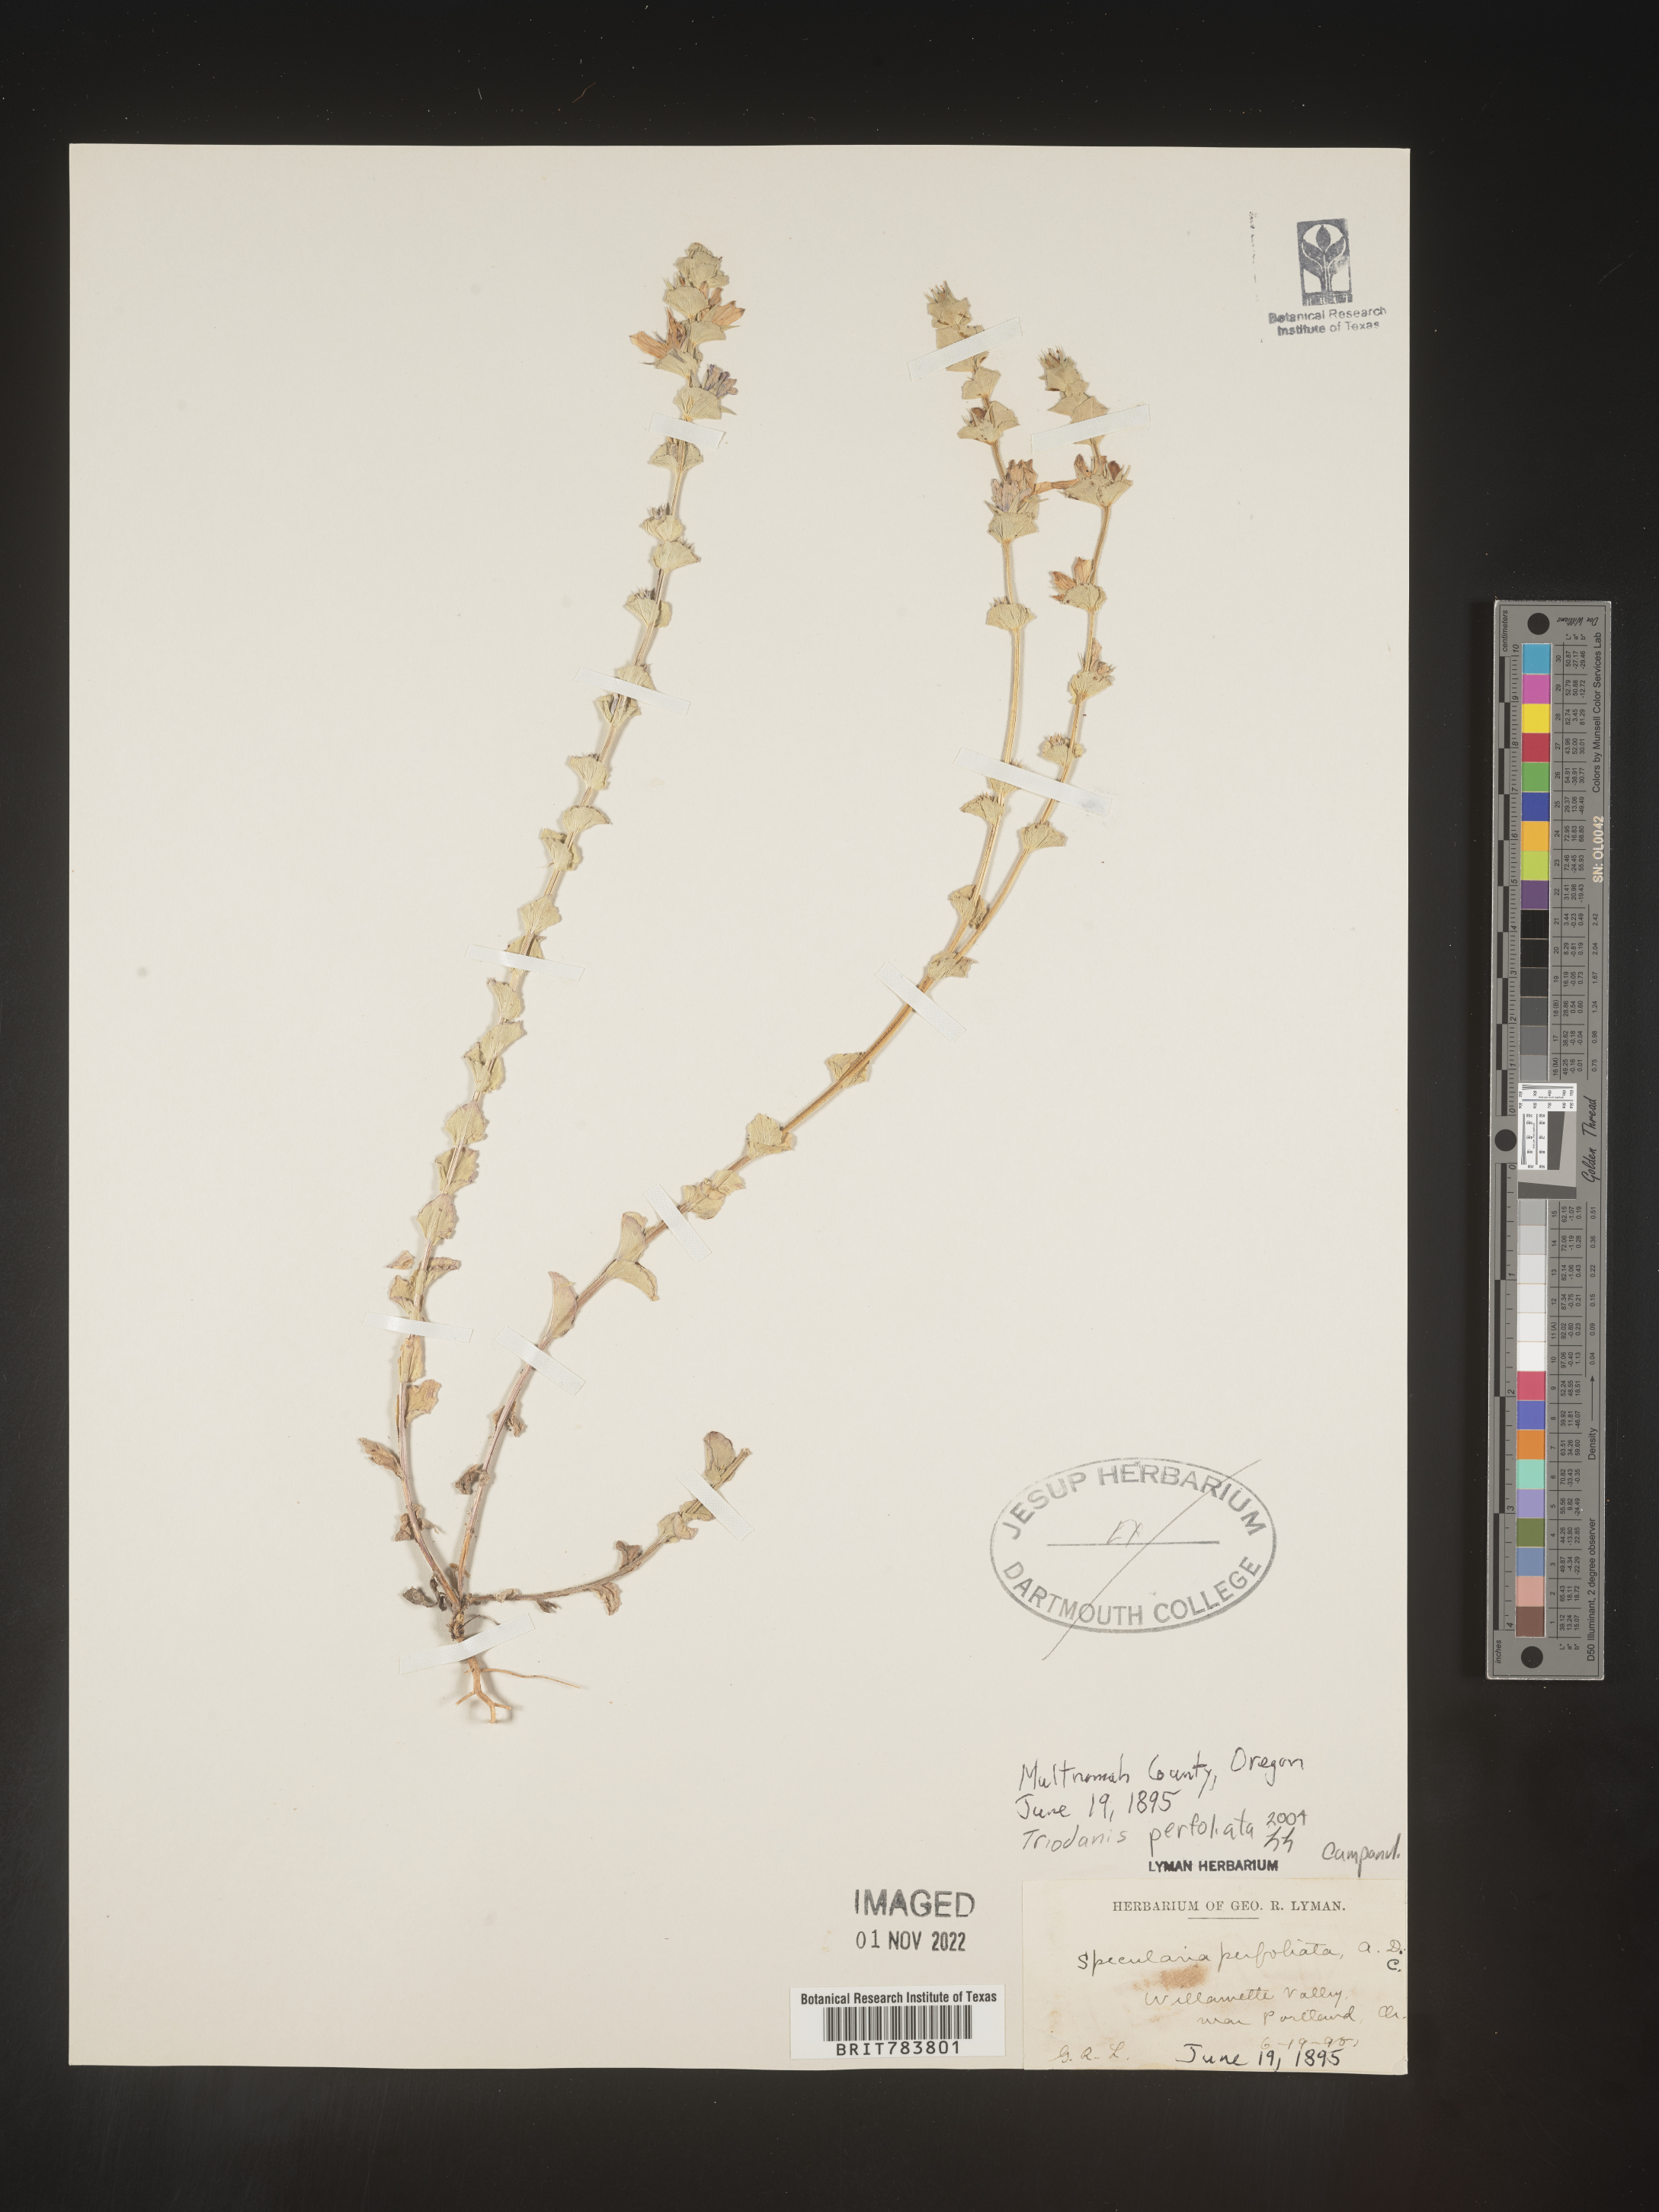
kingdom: Plantae
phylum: Tracheophyta
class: Magnoliopsida
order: Asterales
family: Campanulaceae
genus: Triodanis
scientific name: Triodanis perfoliata
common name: Clasping venus' looking-glass
